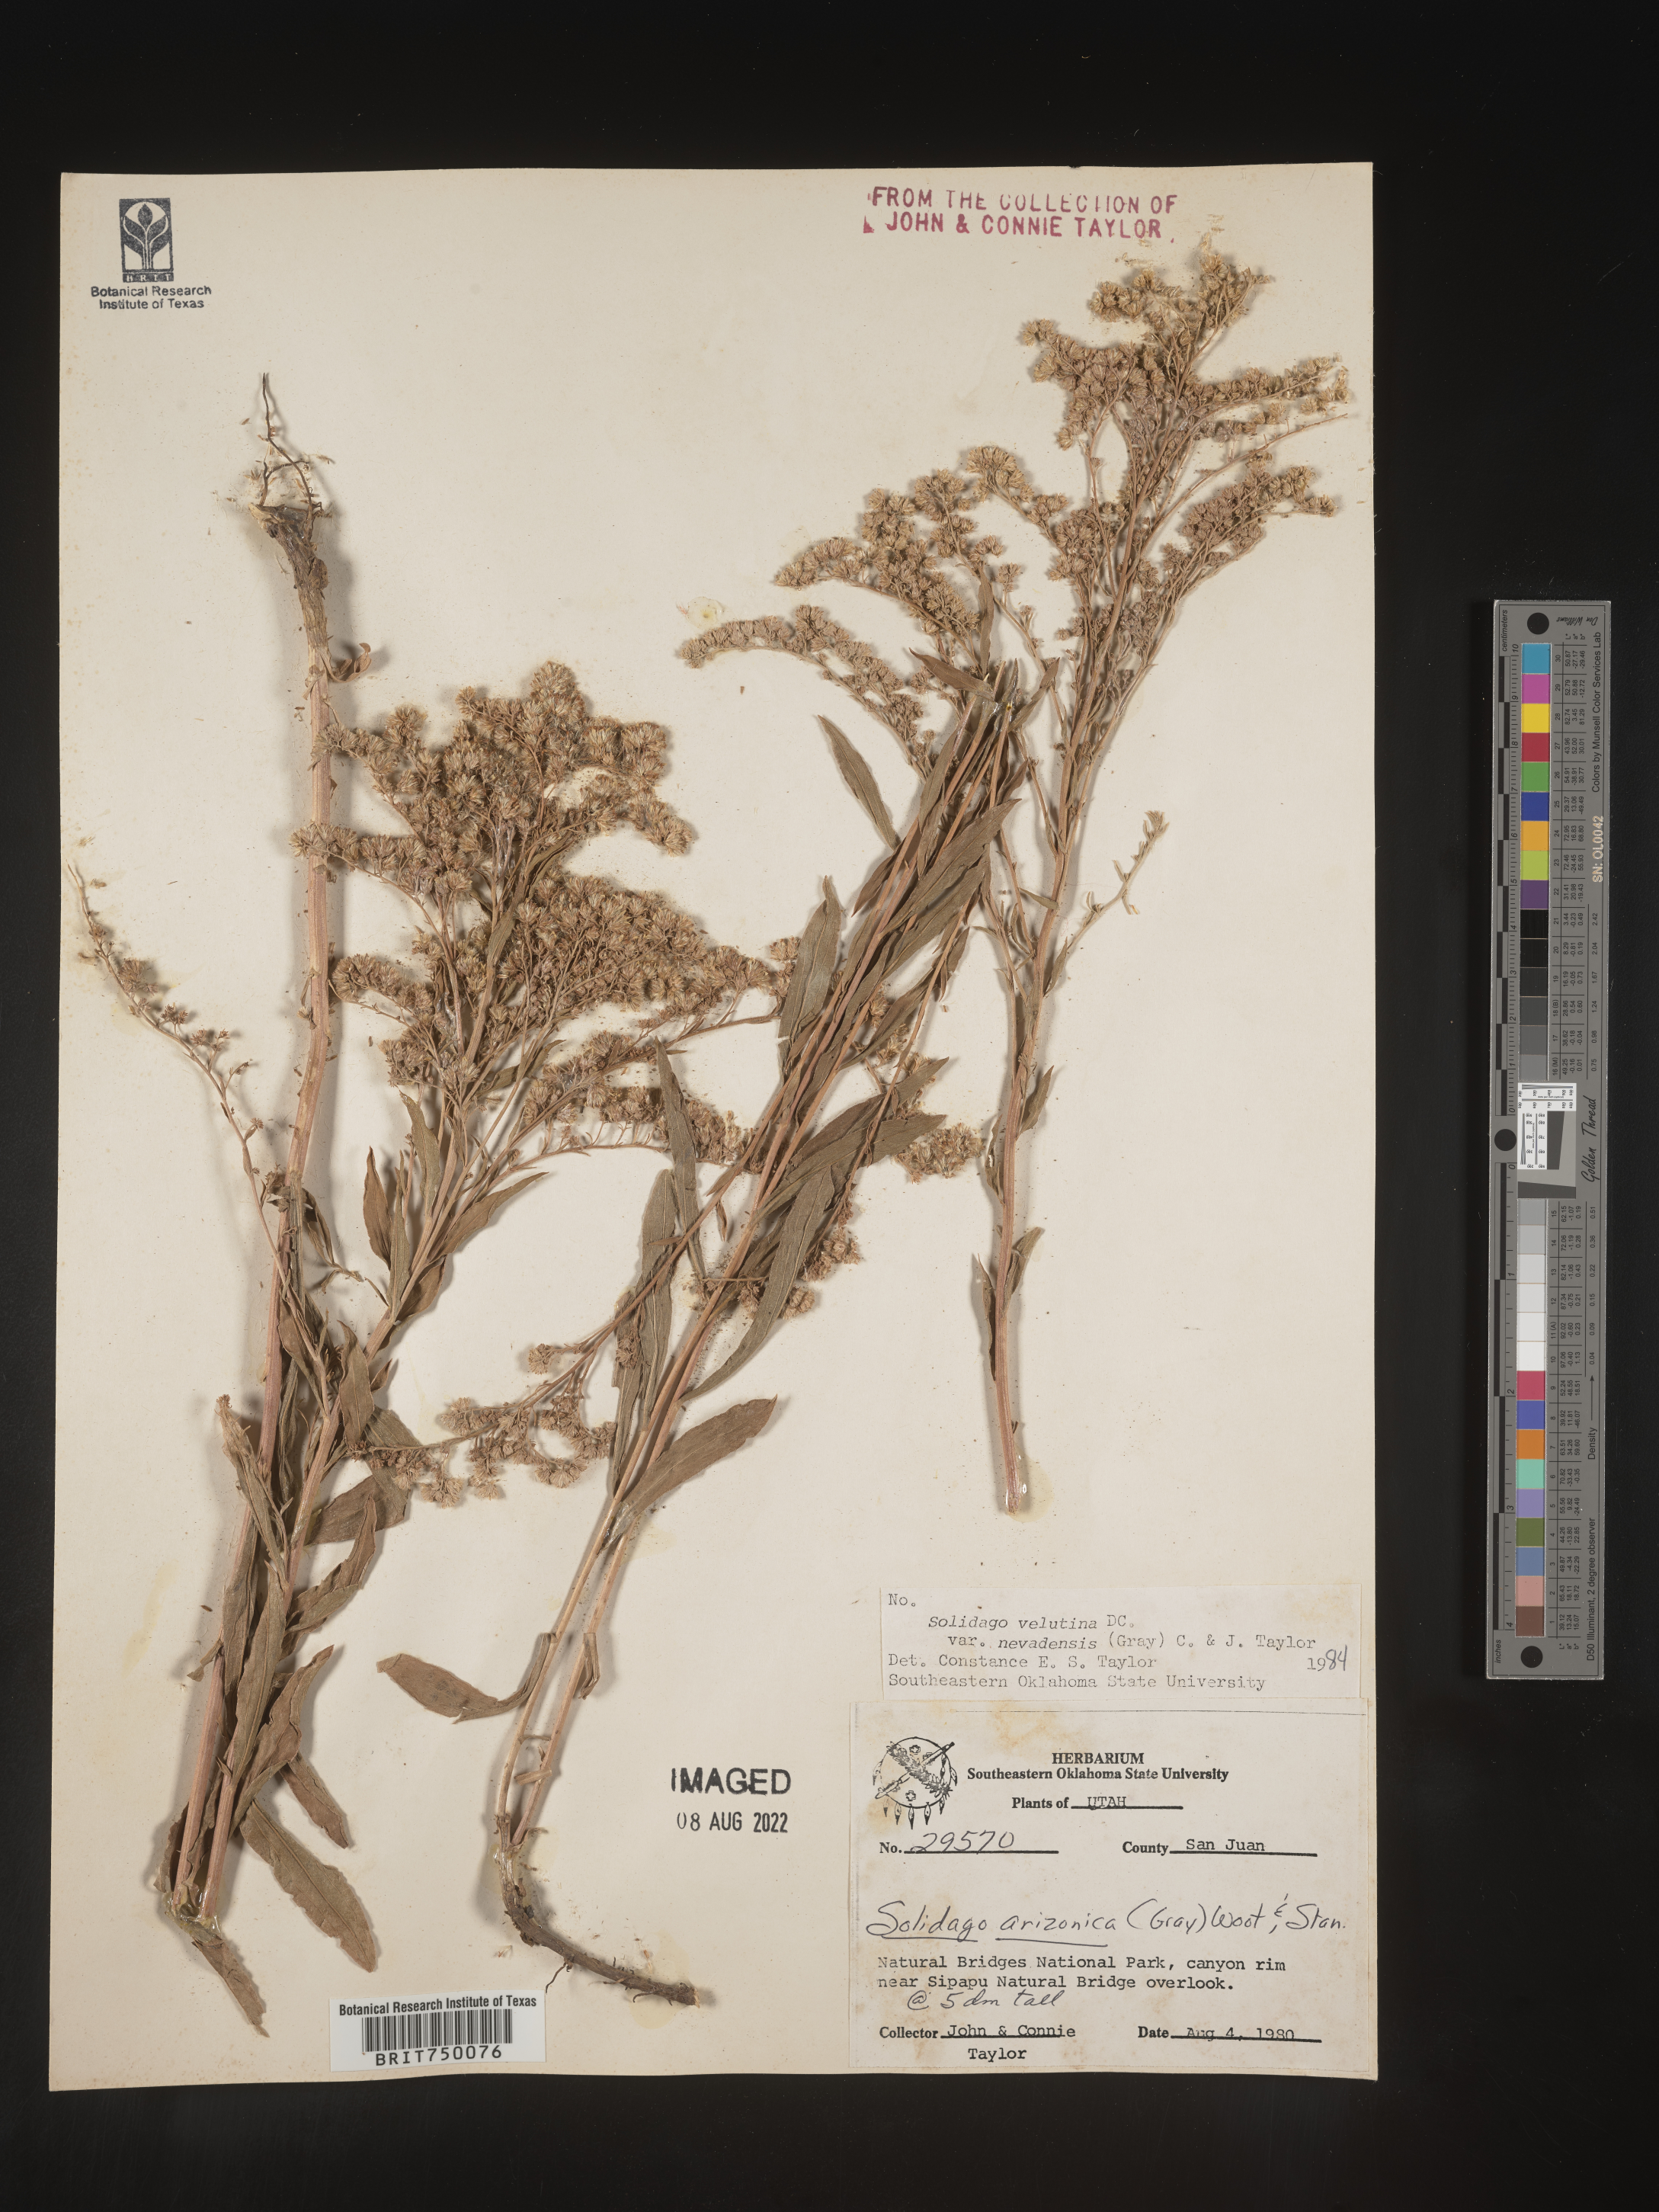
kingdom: Plantae
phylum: Tracheophyta
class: Magnoliopsida
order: Asterales
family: Asteraceae
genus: Solidago
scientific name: Solidago garrettii
